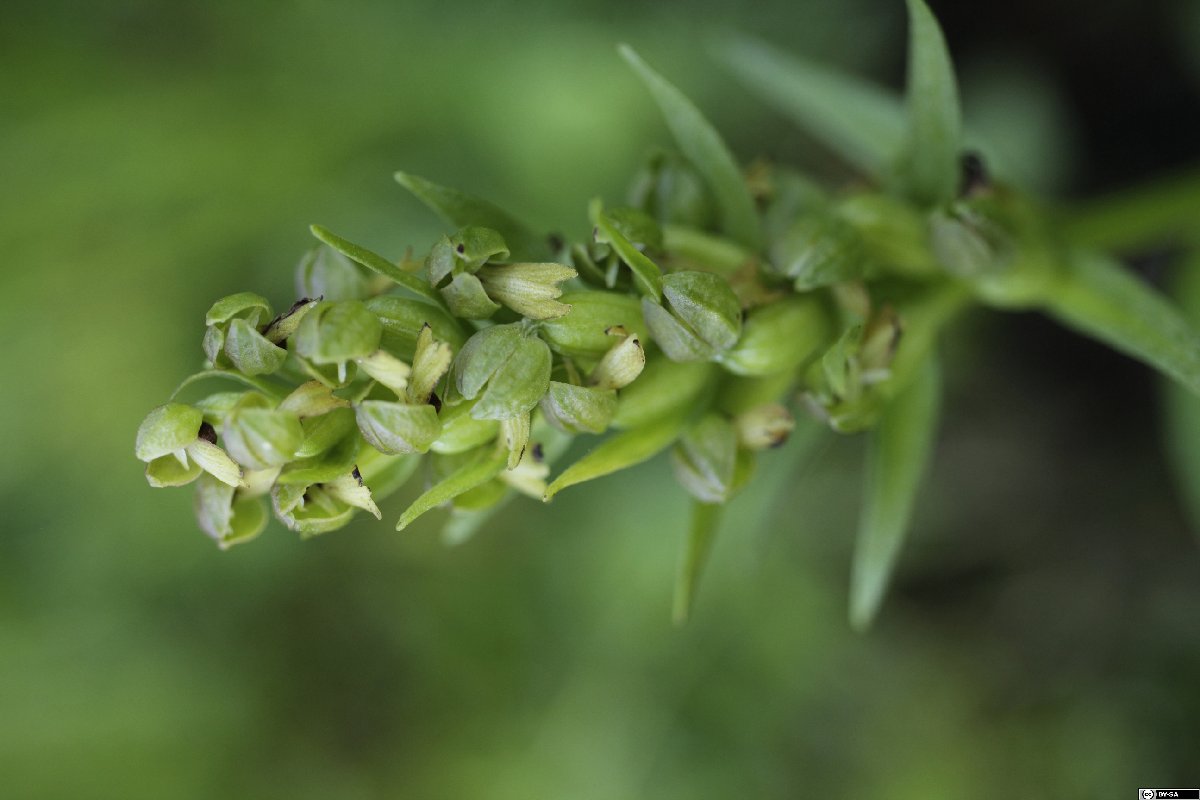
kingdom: Plantae
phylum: Tracheophyta
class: Liliopsida
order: Asparagales
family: Orchidaceae
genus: Dactylorhiza
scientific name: Dactylorhiza viridis
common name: Longbract frog orchid
